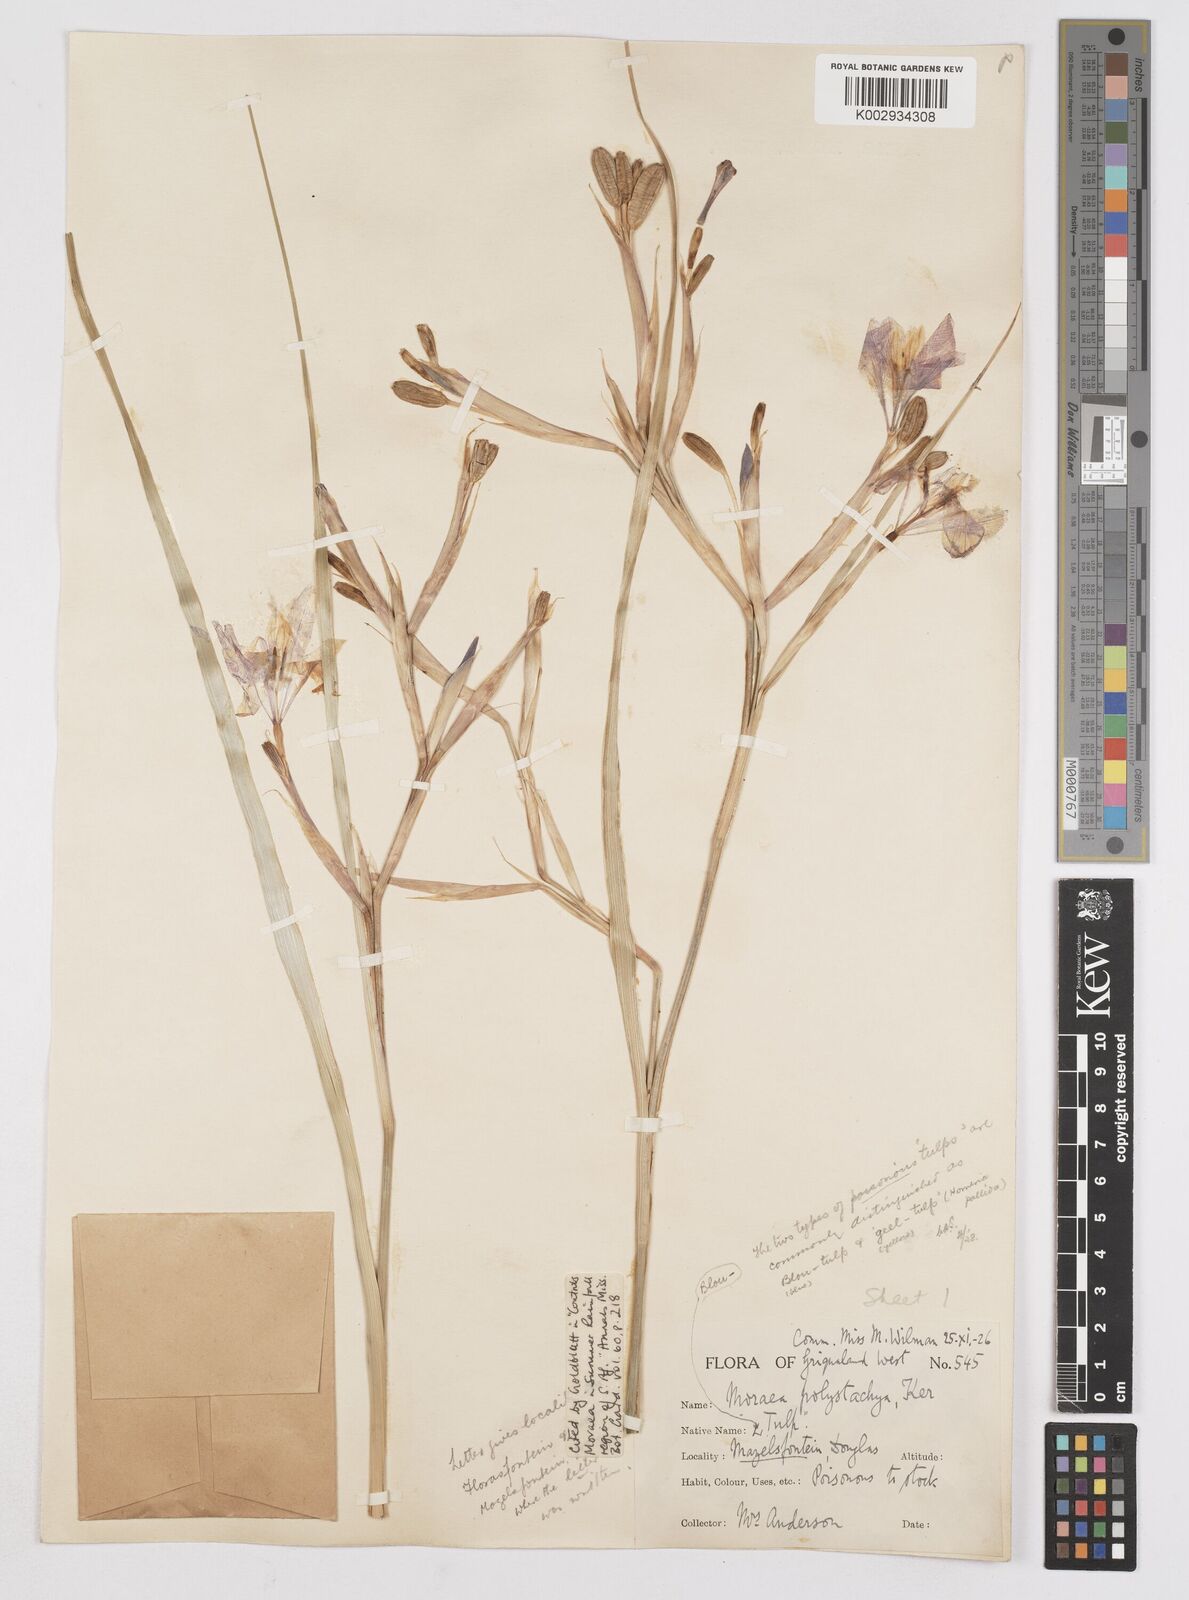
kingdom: Plantae
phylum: Tracheophyta
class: Liliopsida
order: Asparagales
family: Iridaceae
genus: Moraea
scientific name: Moraea polystachya
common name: Blue-tulip
